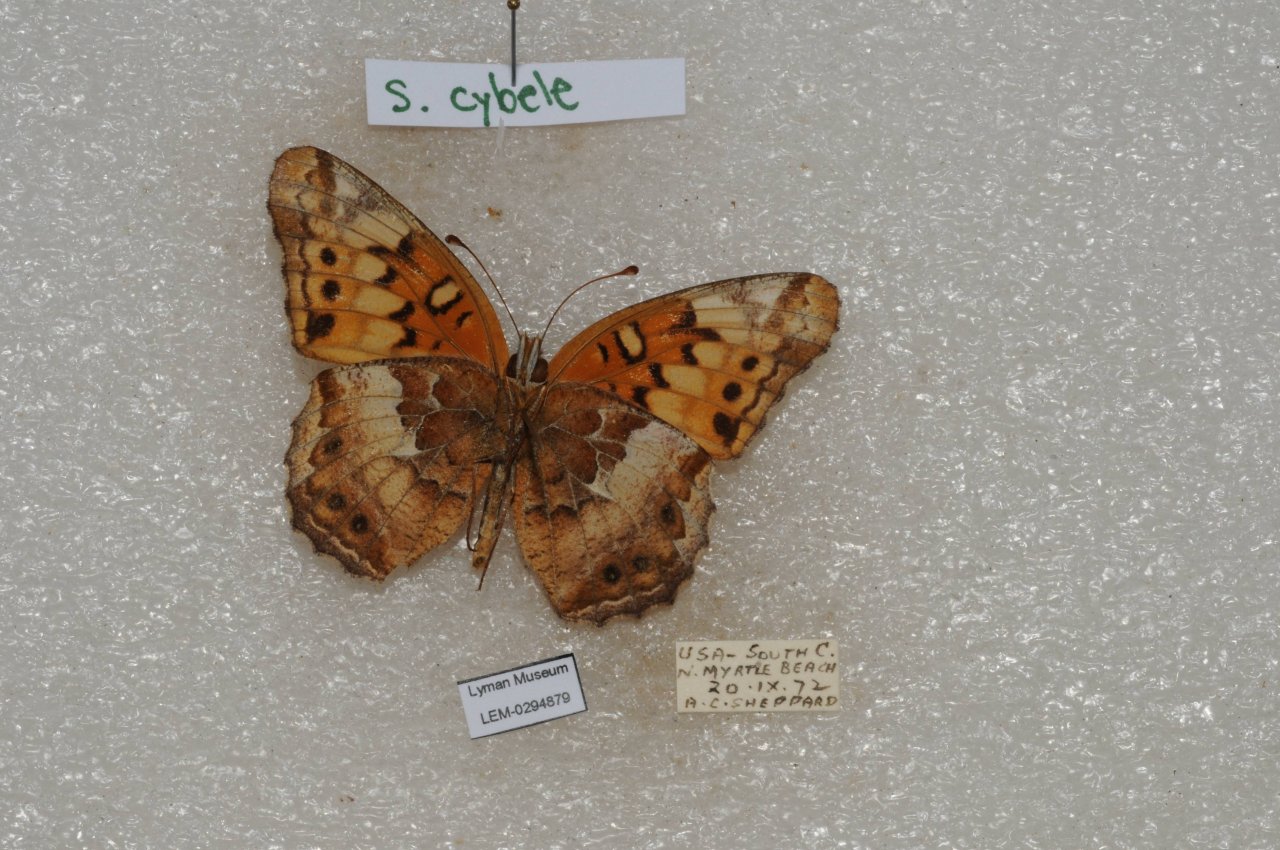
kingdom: Animalia
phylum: Arthropoda
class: Insecta
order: Lepidoptera
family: Nymphalidae
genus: Euptoieta
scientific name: Euptoieta claudia
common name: Variegated Fritillary
